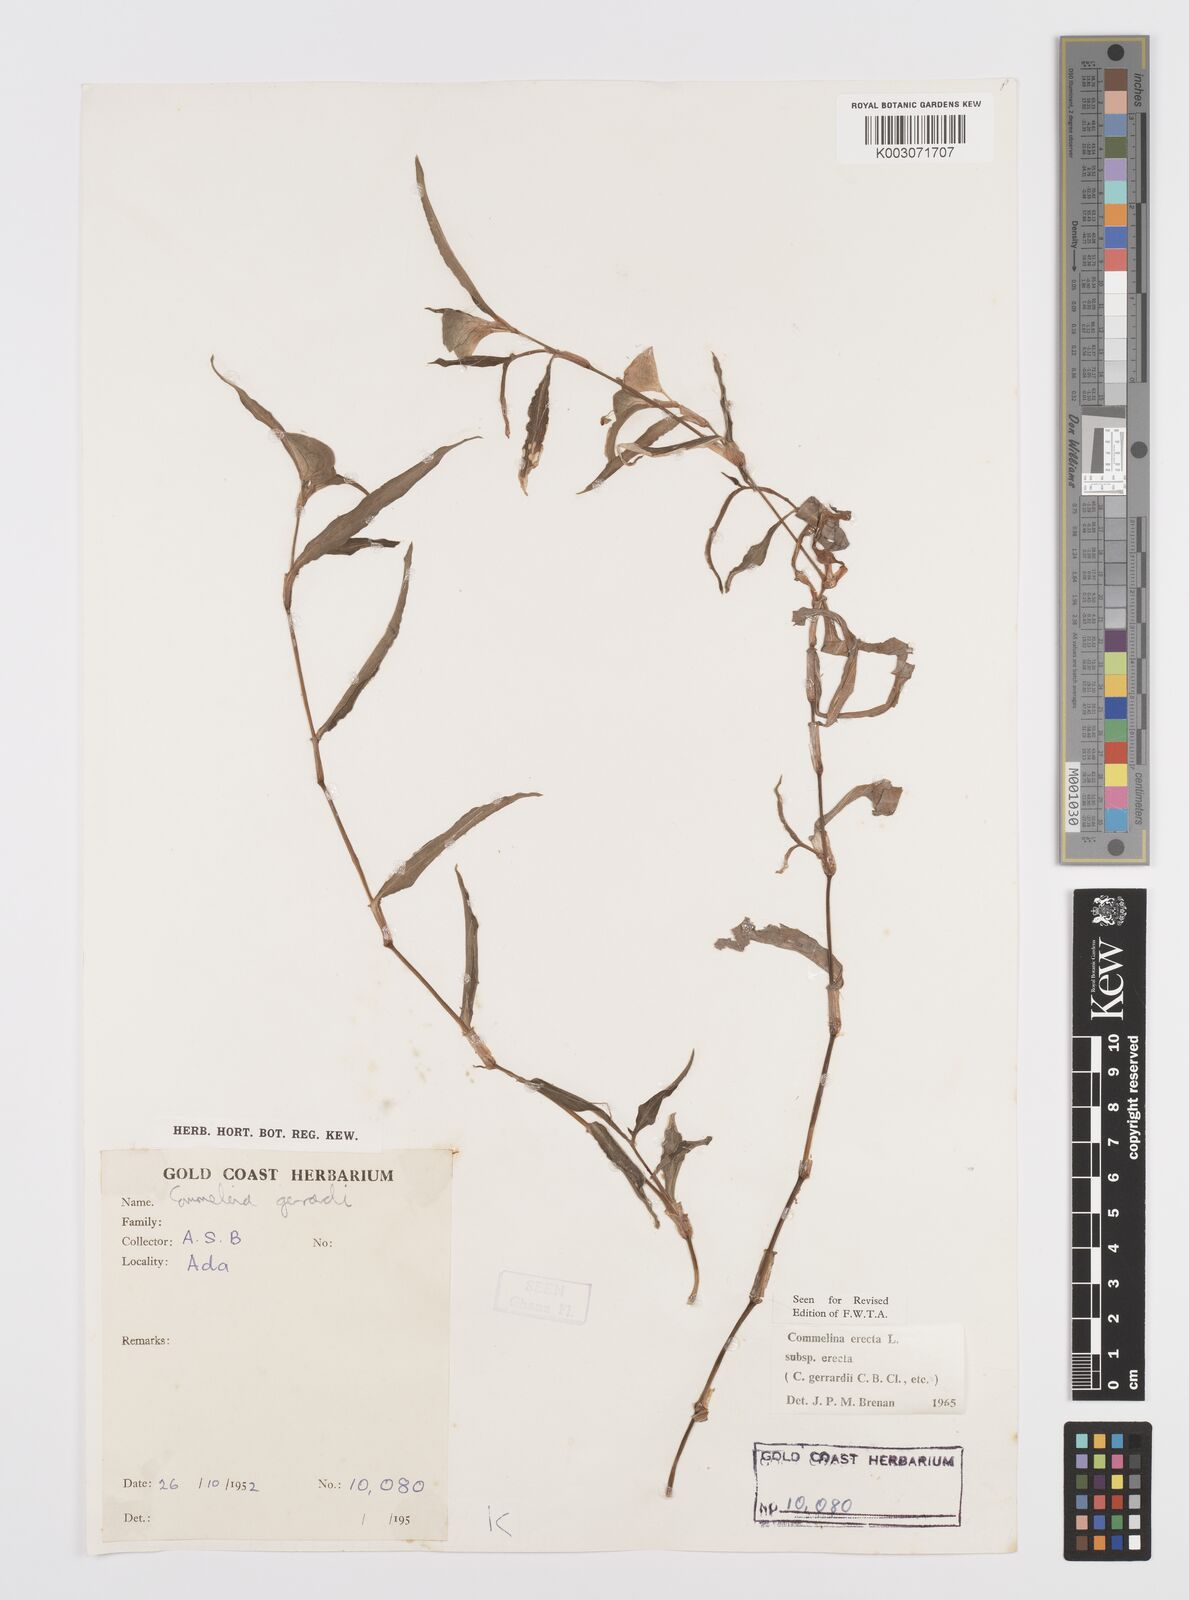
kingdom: Plantae
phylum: Tracheophyta
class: Liliopsida
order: Commelinales
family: Commelinaceae
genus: Commelina
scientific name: Commelina erecta
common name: Blousel blommetjie
